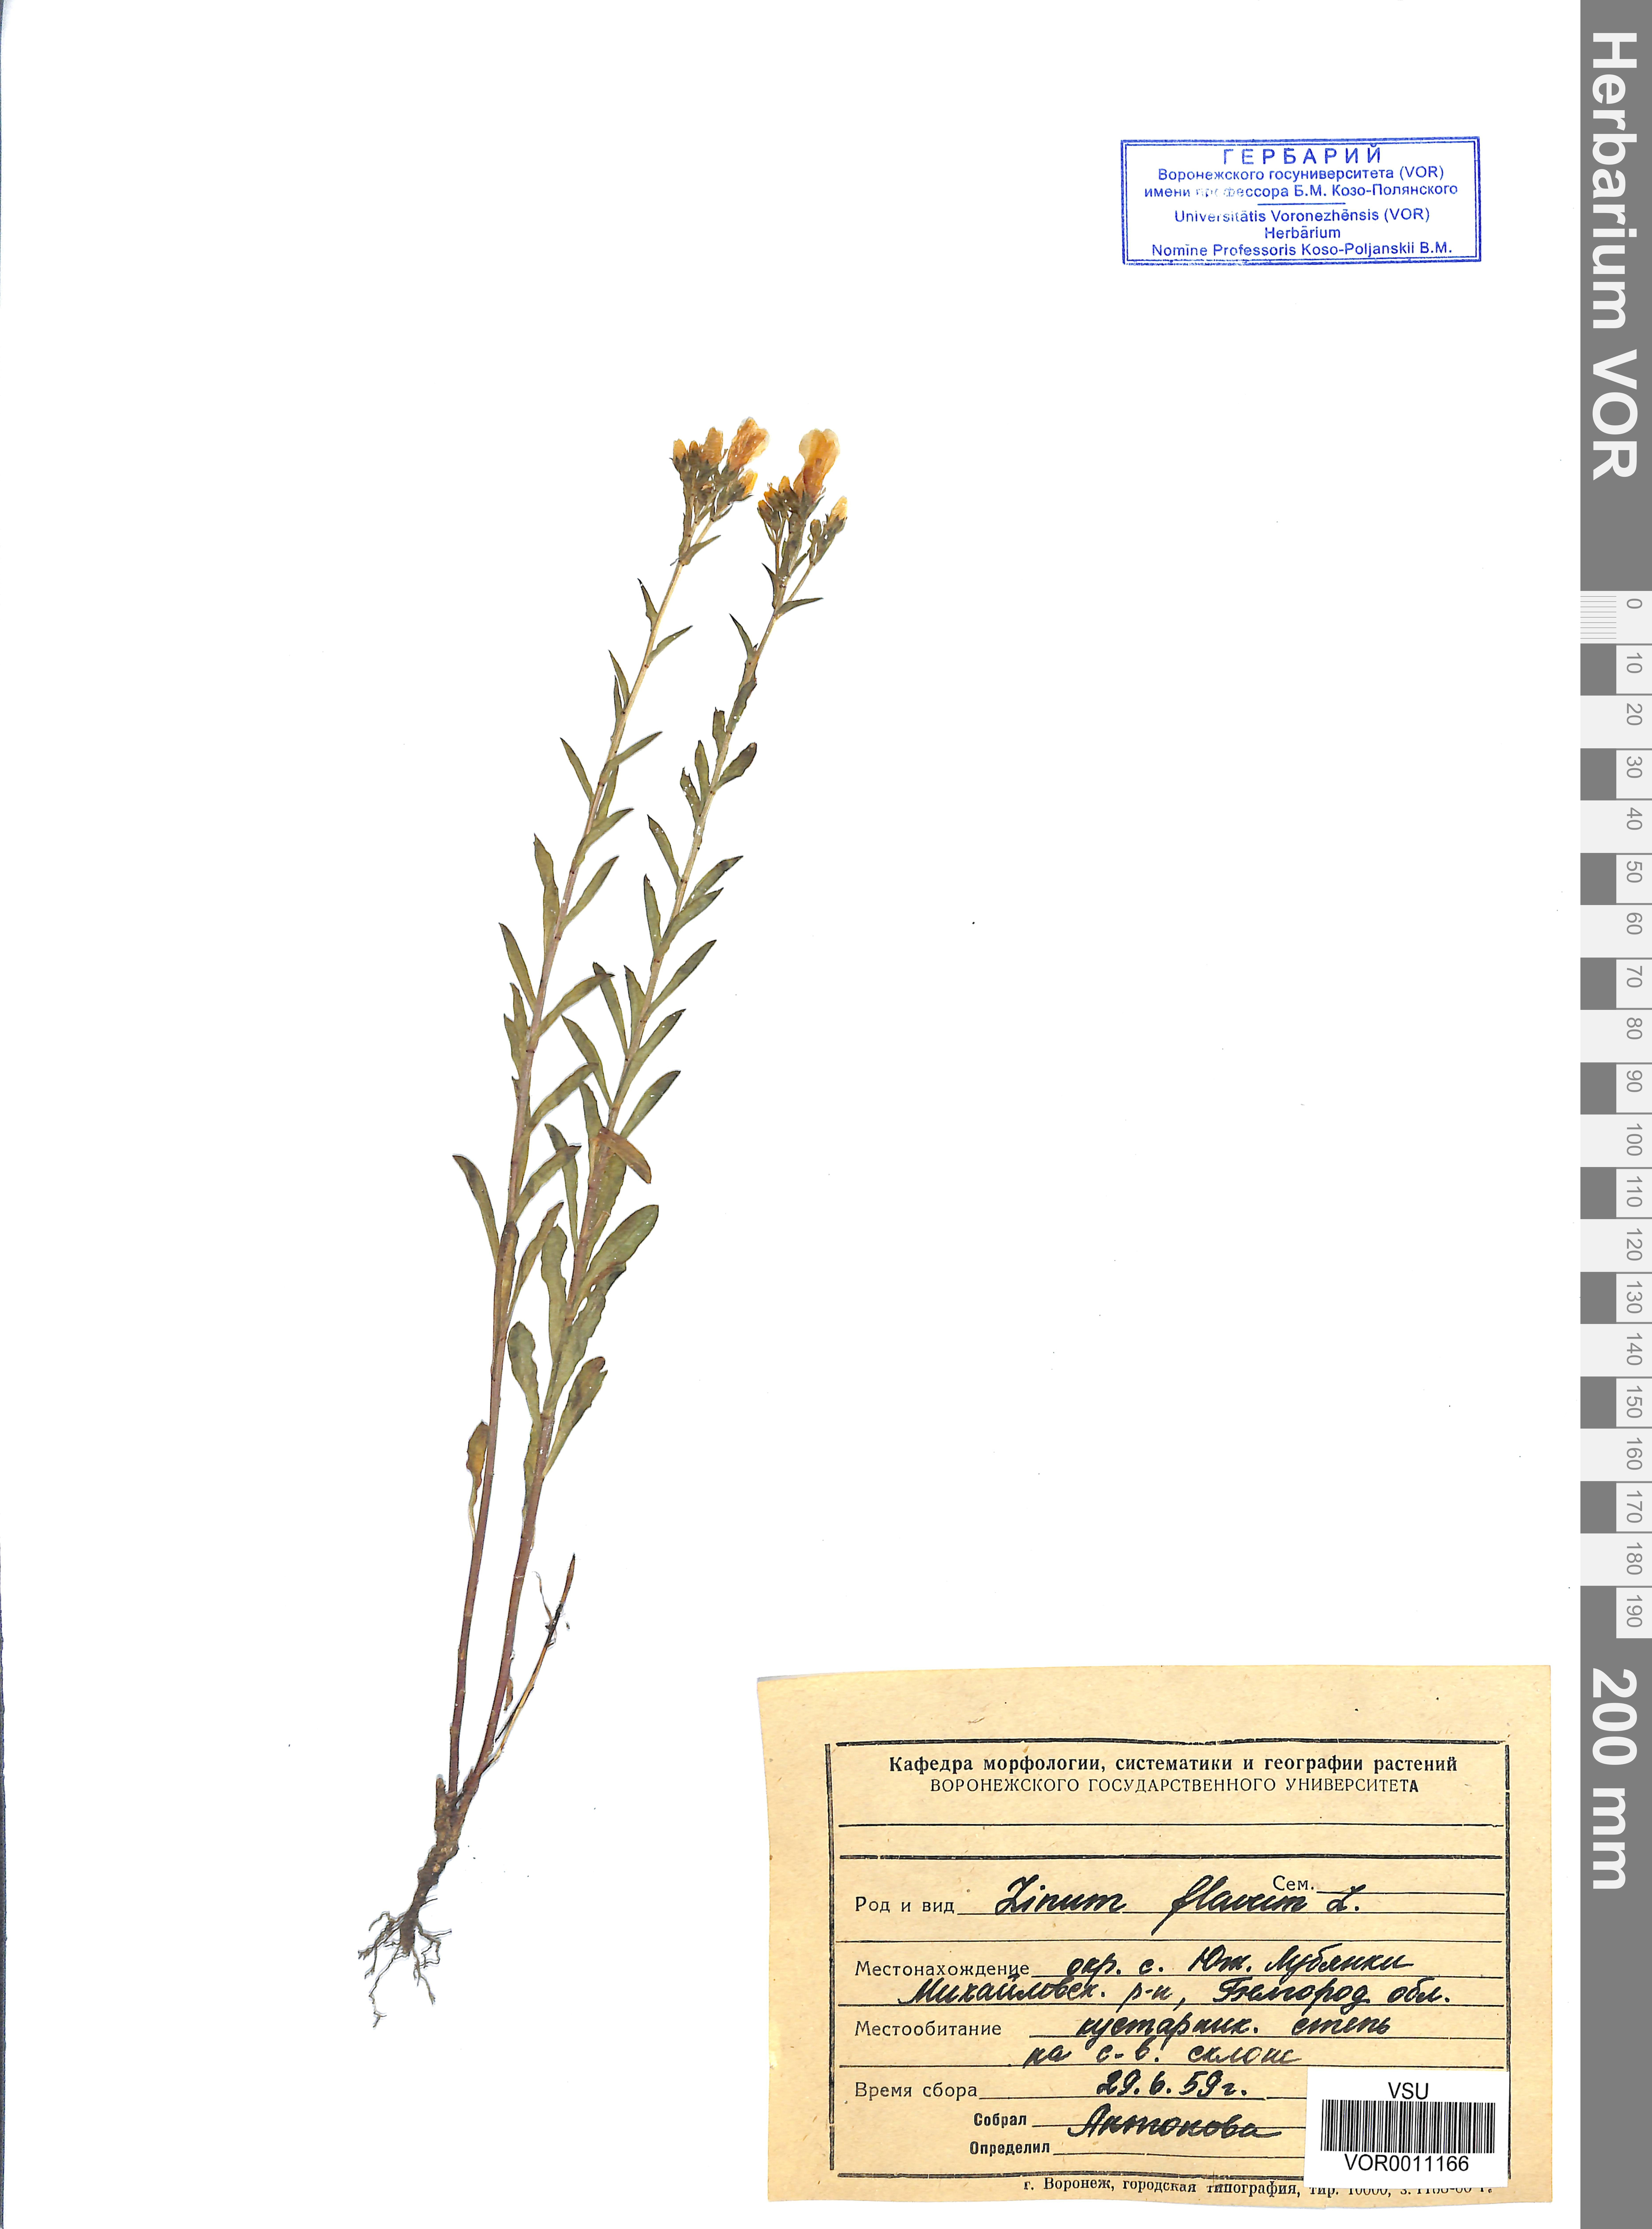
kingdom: Plantae
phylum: Tracheophyta
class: Magnoliopsida
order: Malpighiales
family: Linaceae
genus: Linum
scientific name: Linum flavum
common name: Yellow flax
